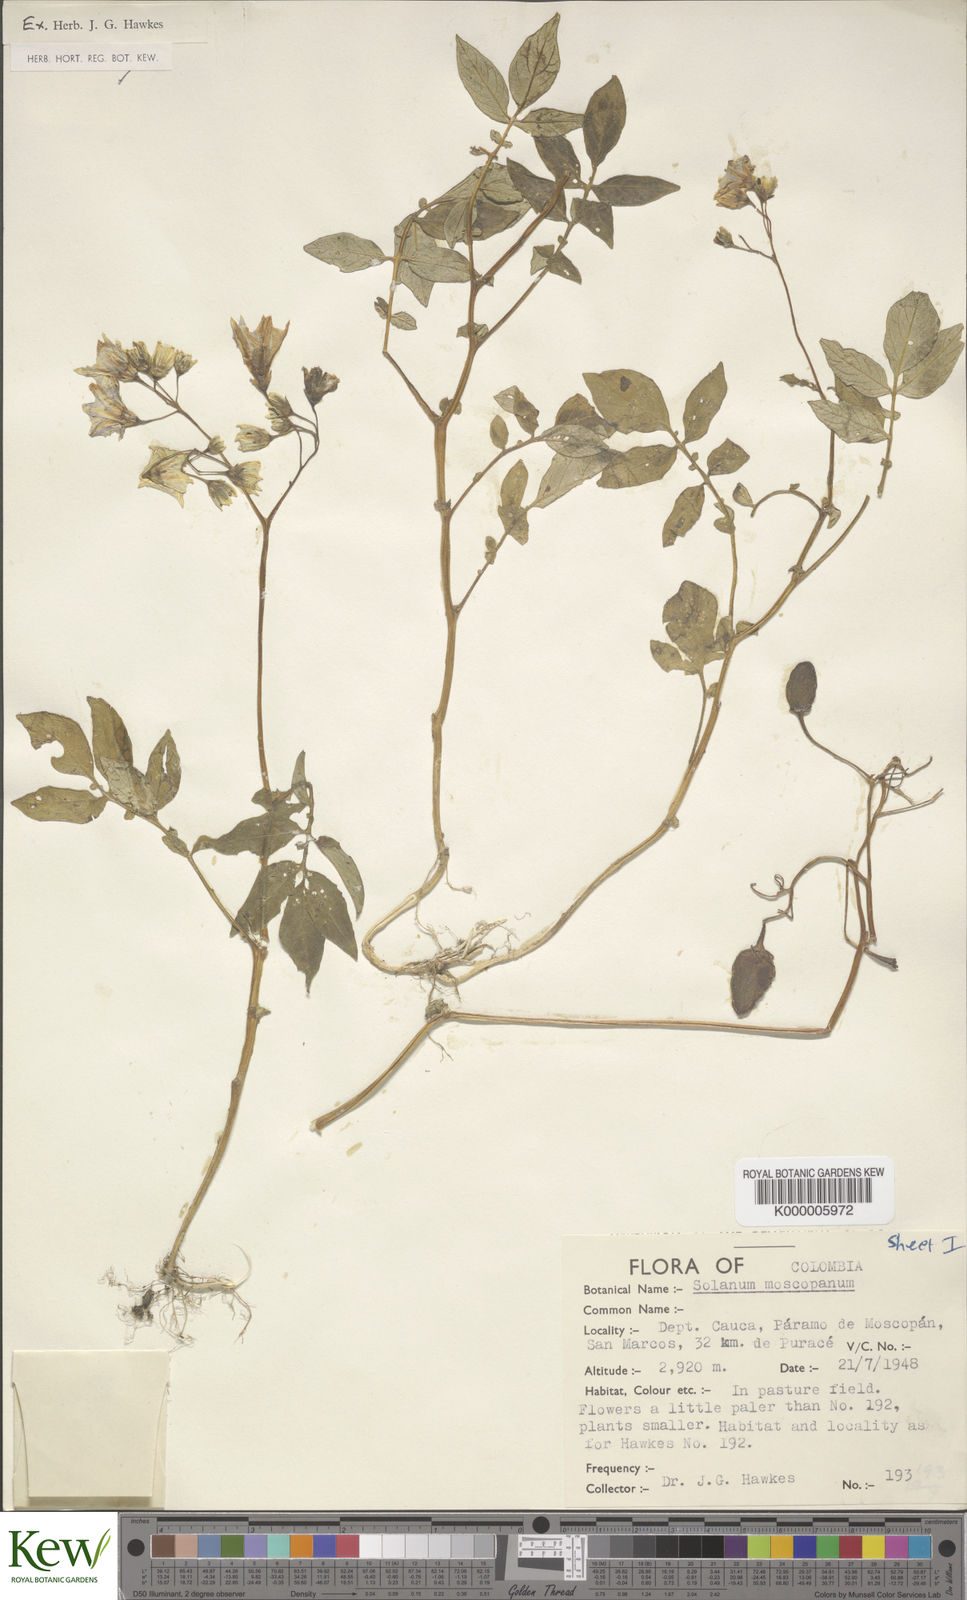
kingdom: Plantae
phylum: Tracheophyta
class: Magnoliopsida
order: Solanales
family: Solanaceae
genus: Solanum
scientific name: Solanum colombianum
